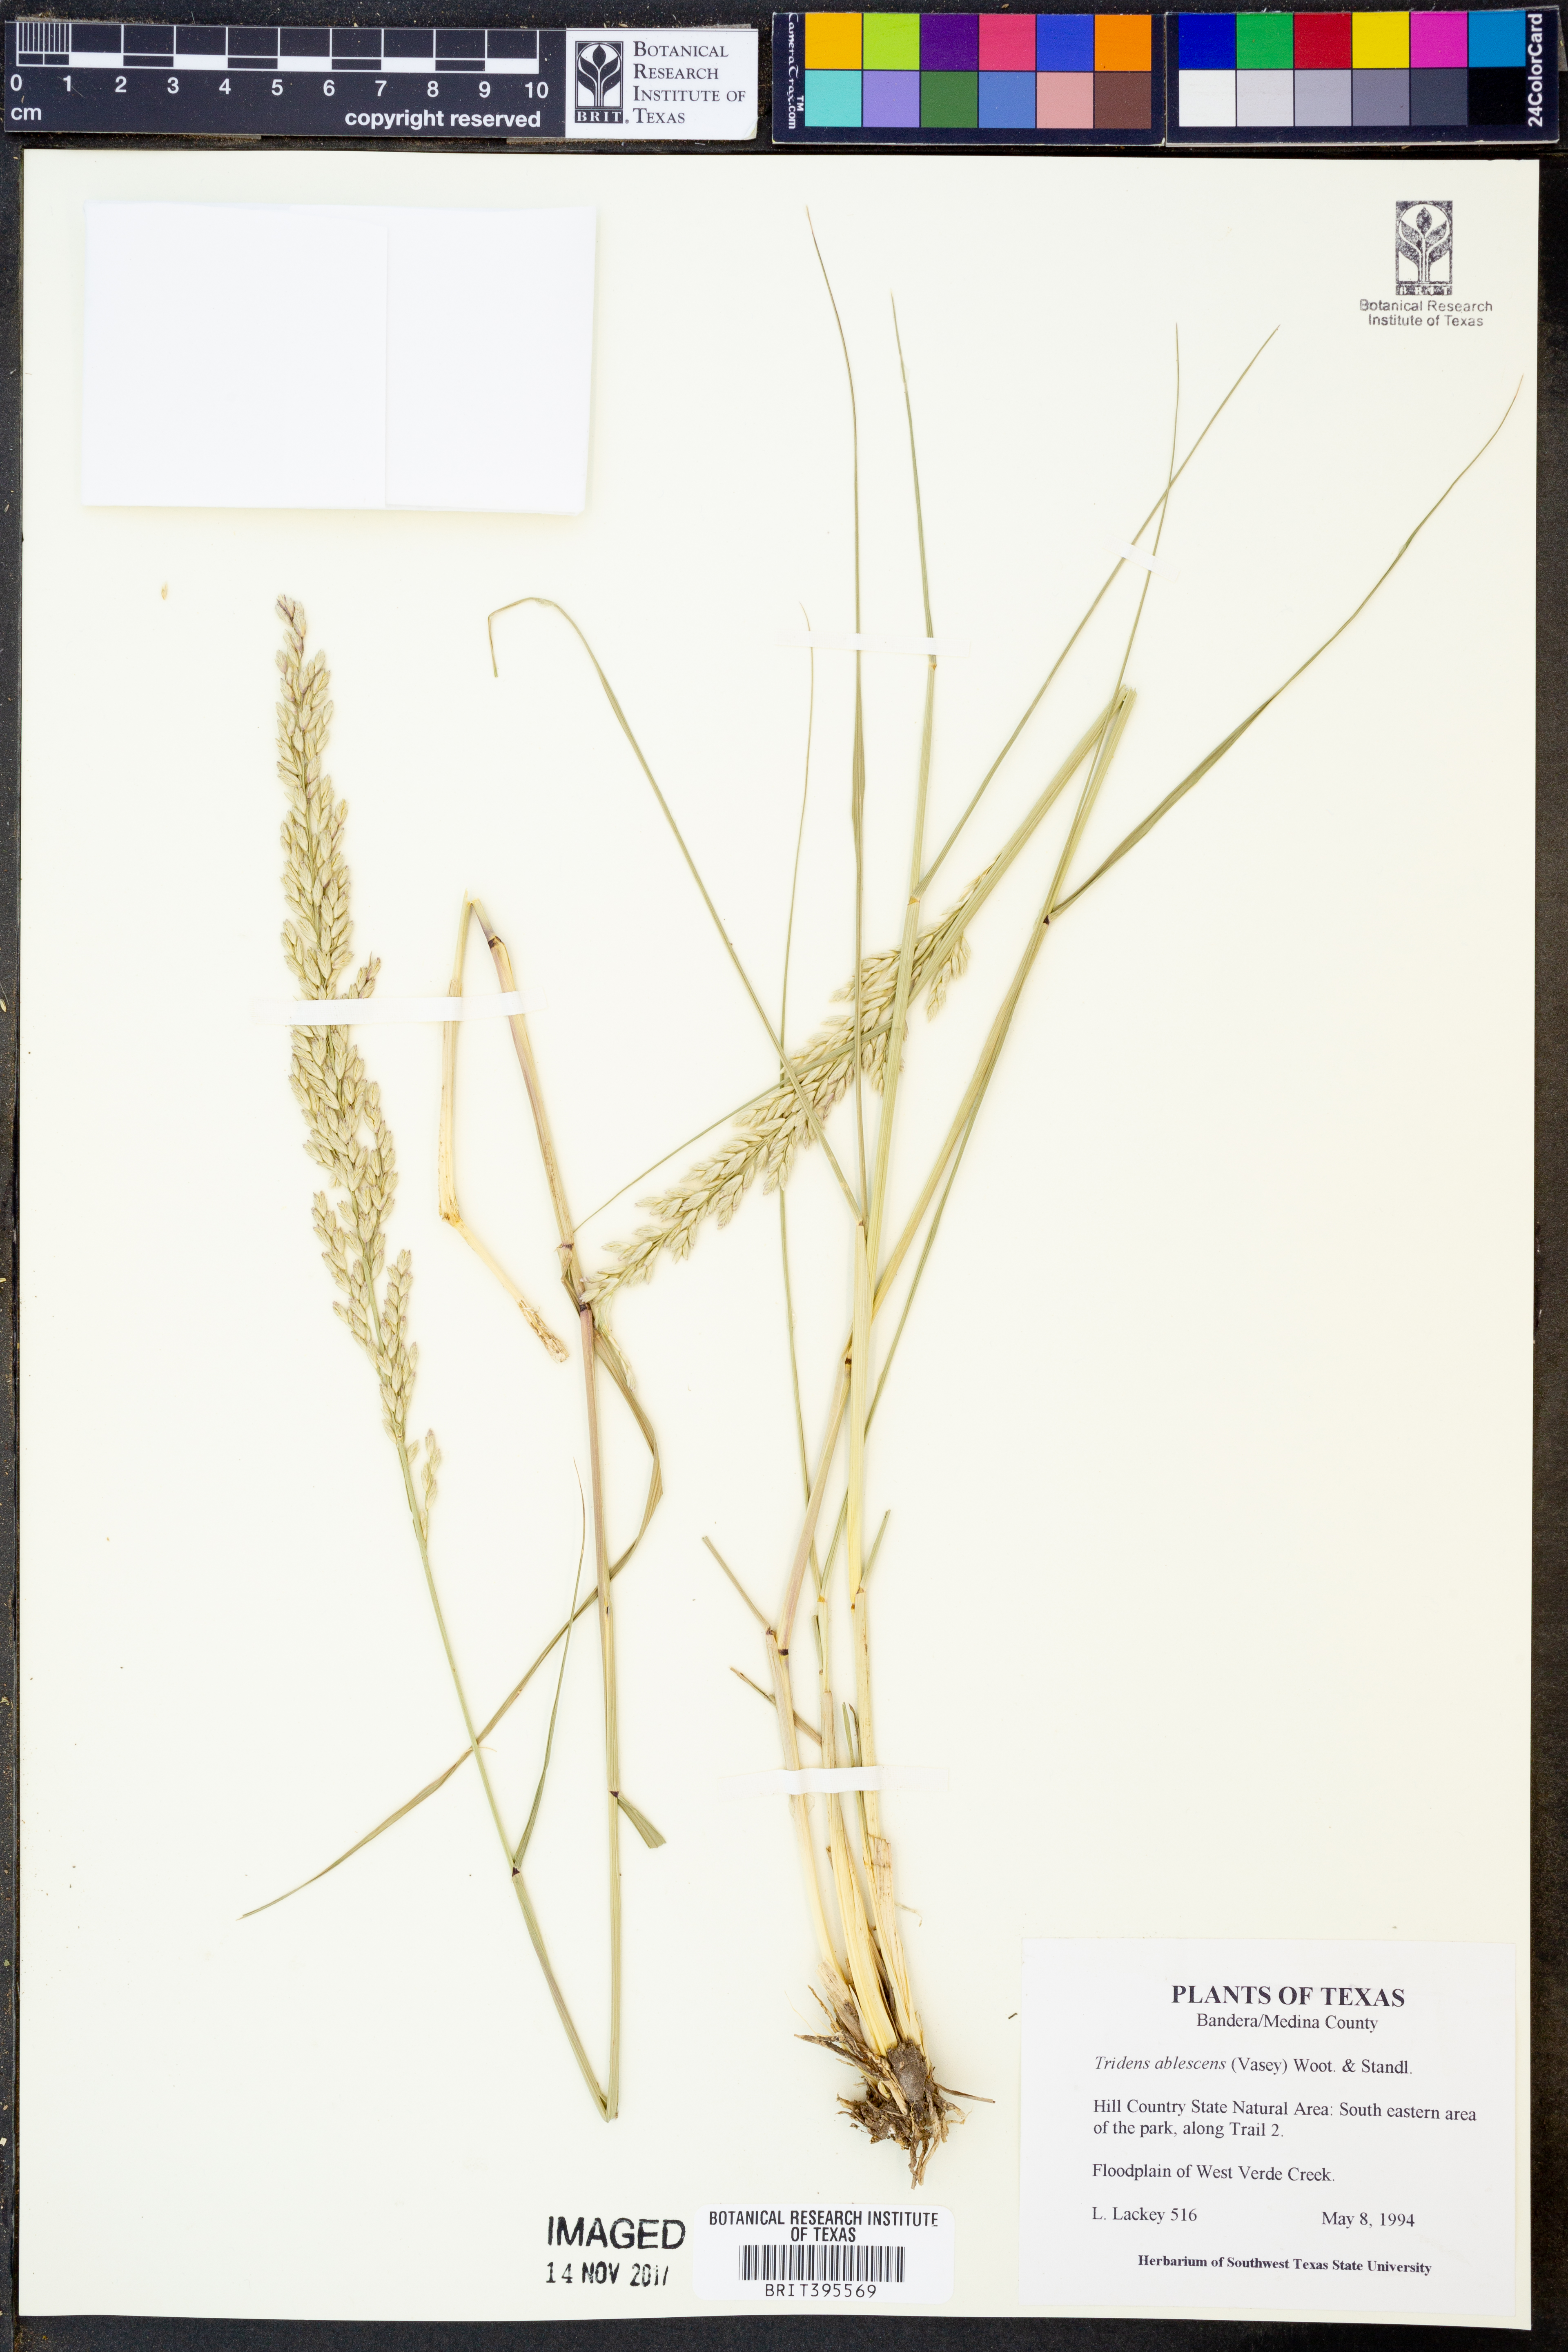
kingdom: Plantae
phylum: Tracheophyta
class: Liliopsida
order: Poales
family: Poaceae
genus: Tridens
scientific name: Tridens albescens
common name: White tridens
